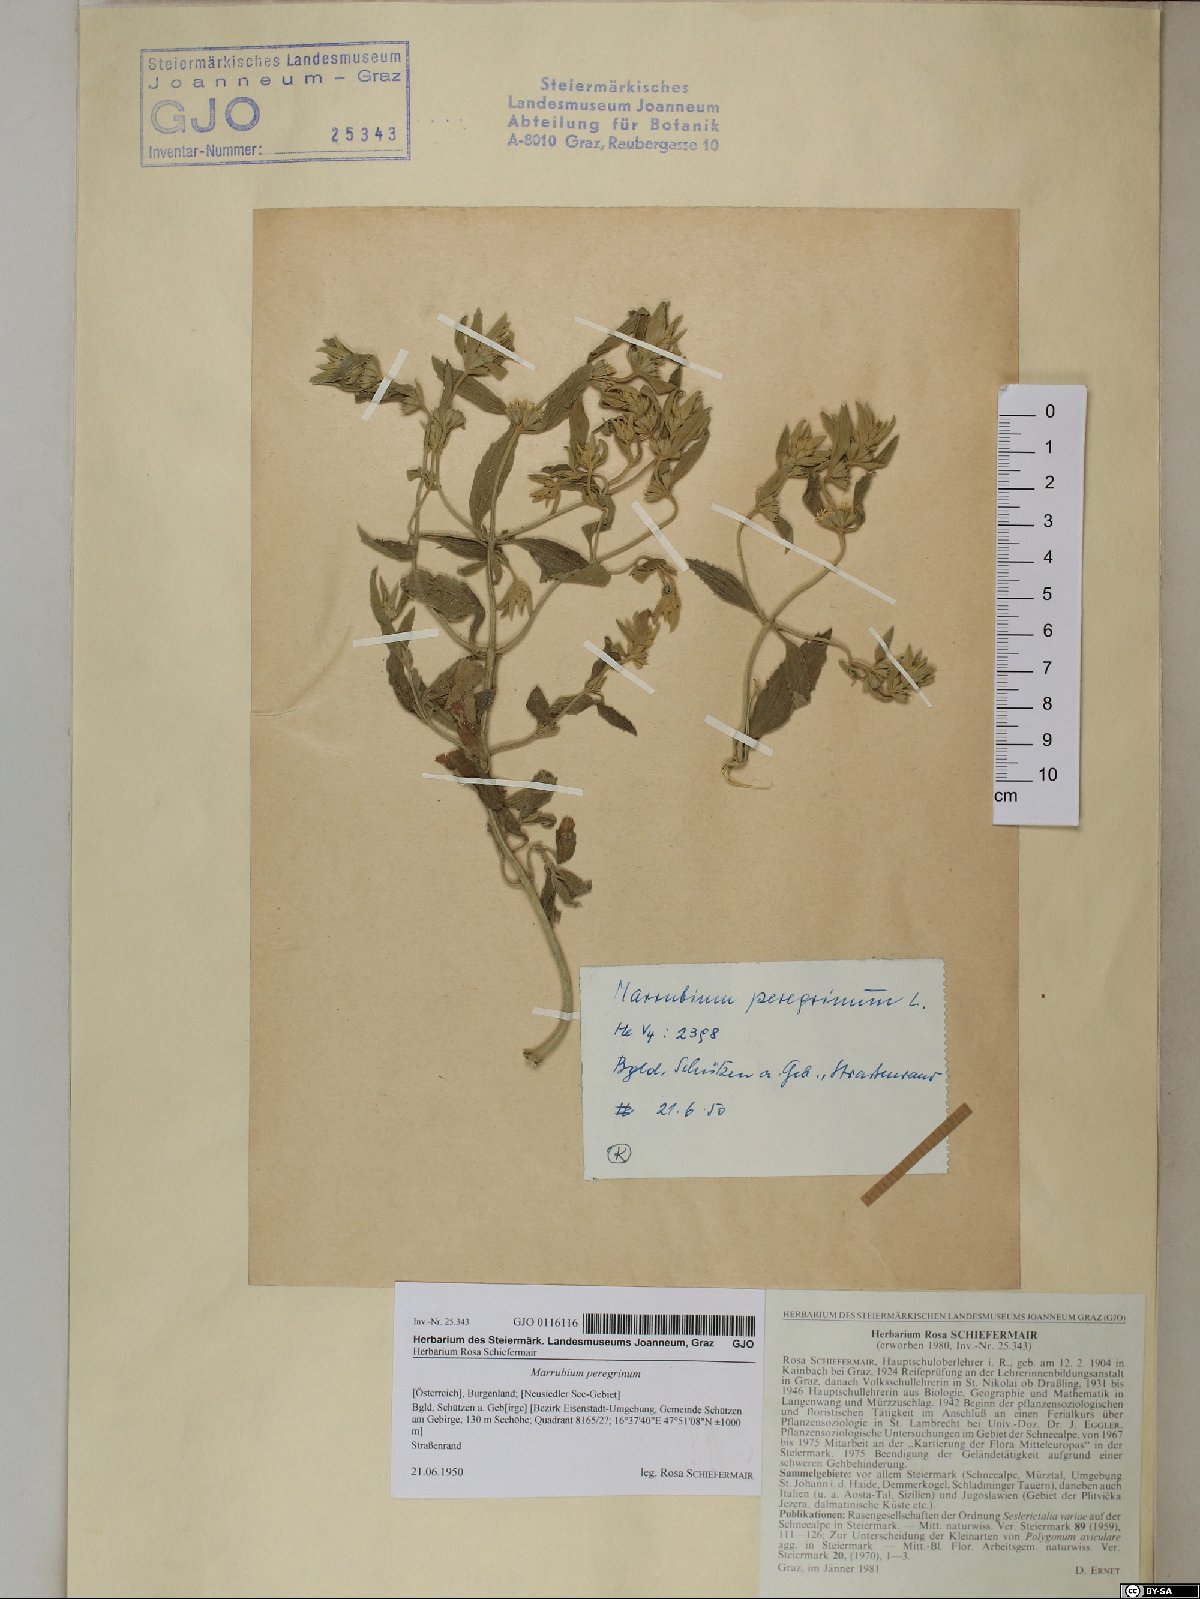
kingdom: Plantae
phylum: Tracheophyta
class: Magnoliopsida
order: Lamiales
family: Lamiaceae
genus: Marrubium
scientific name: Marrubium peregrinum
